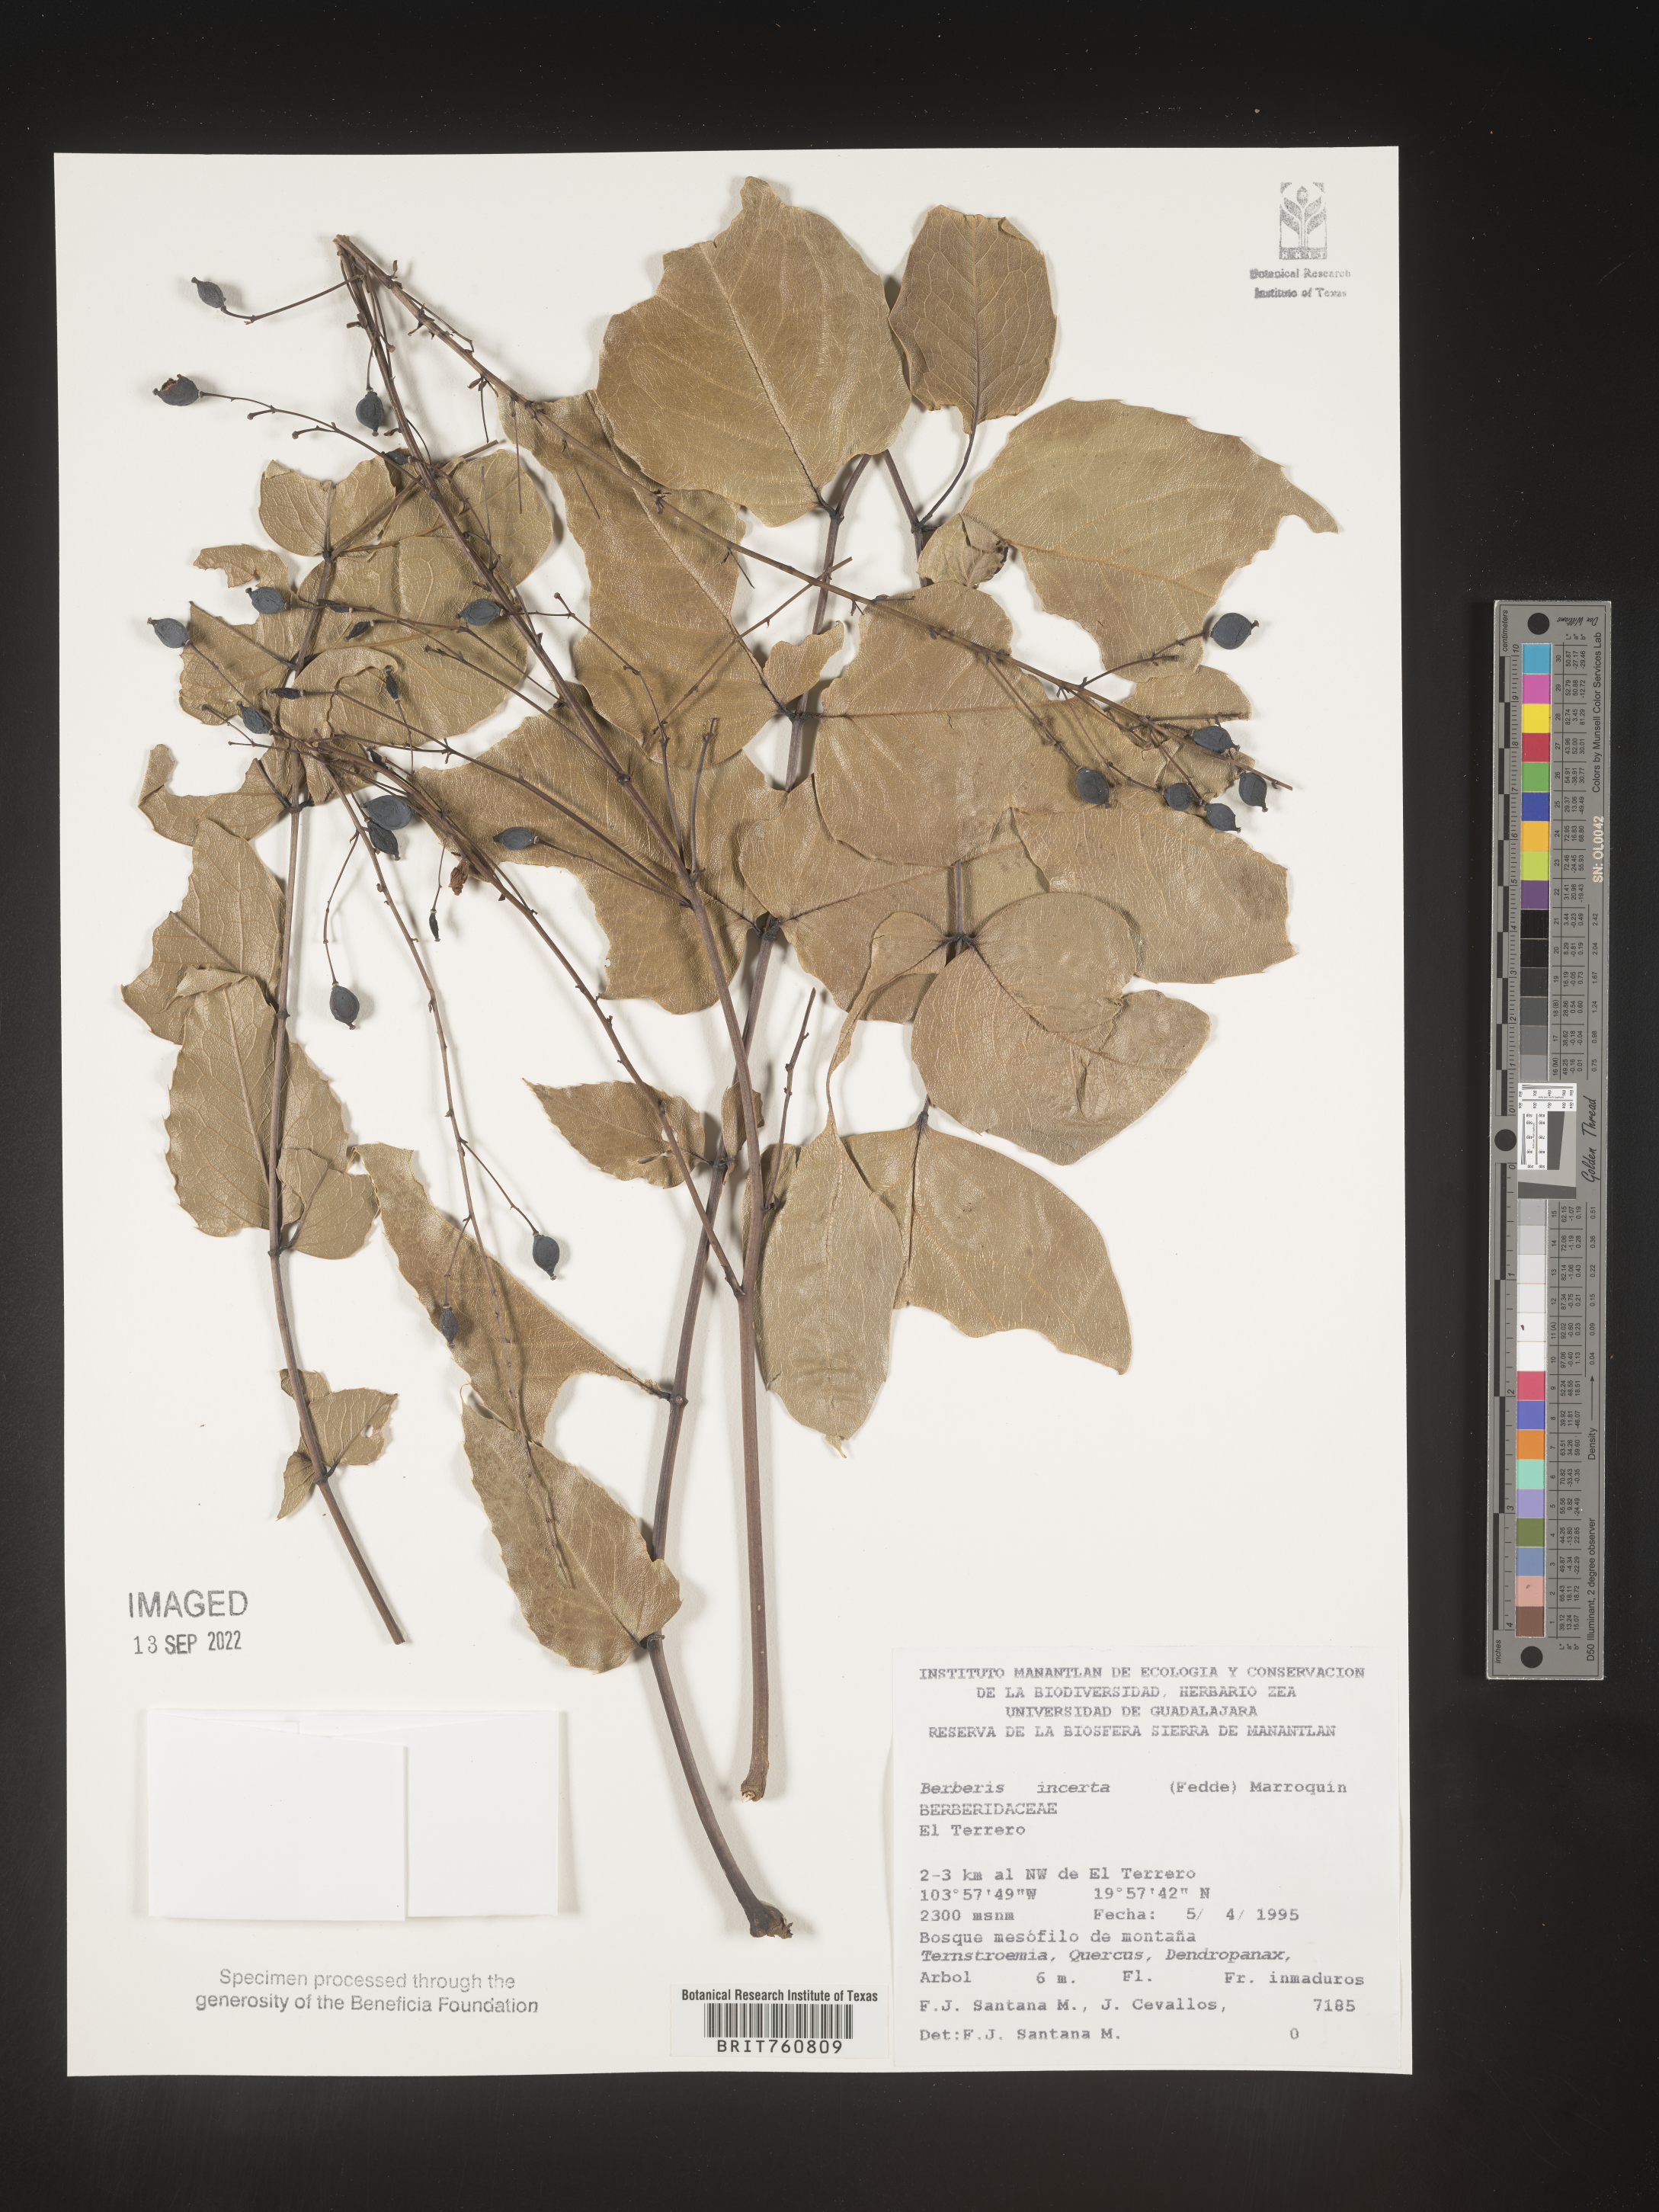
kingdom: Plantae
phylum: Tracheophyta
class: Magnoliopsida
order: Ranunculales
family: Berberidaceae
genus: Berberis
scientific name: Berberis
